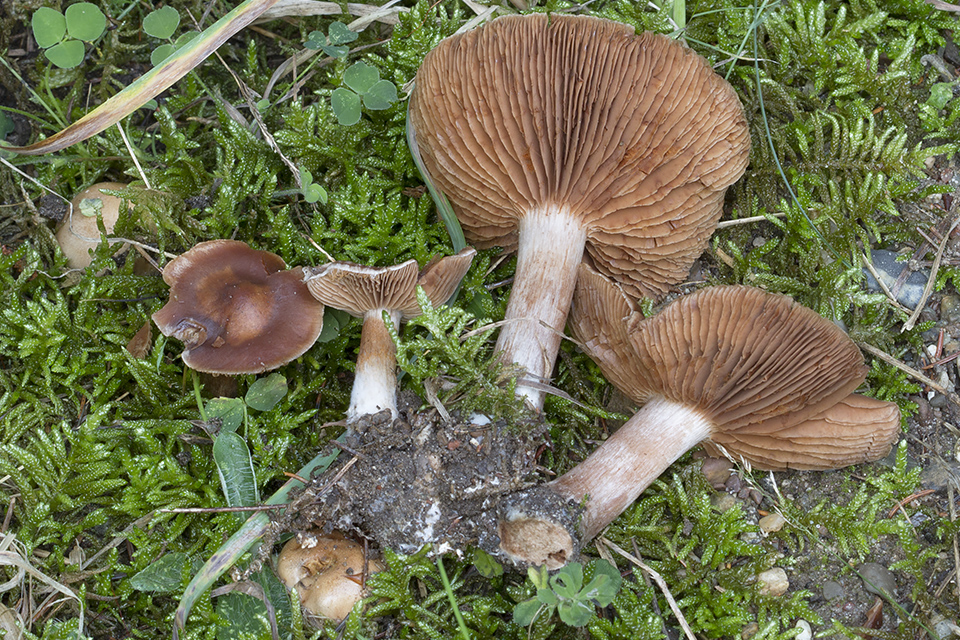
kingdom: Fungi
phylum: Basidiomycota
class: Agaricomycetes
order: Agaricales
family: Cortinariaceae
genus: Cortinarius
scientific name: Cortinarius brunneoaffinis
